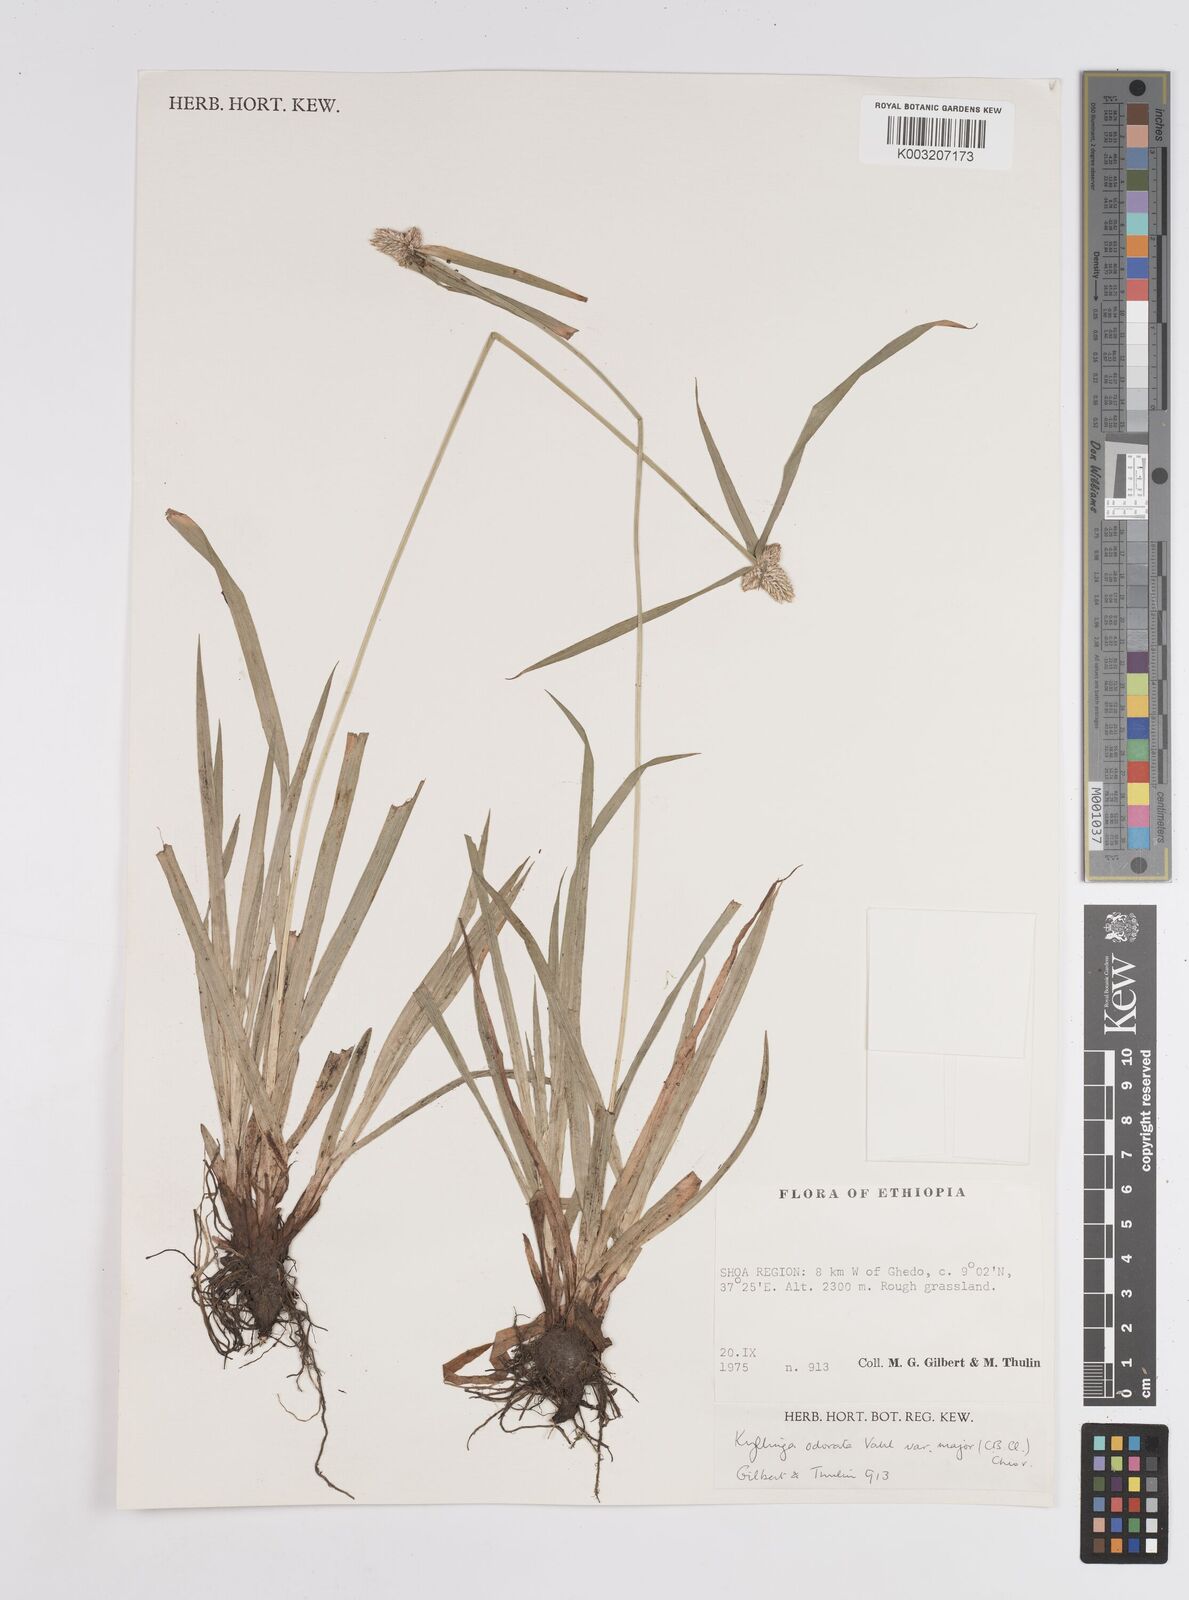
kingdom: Plantae
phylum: Tracheophyta
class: Liliopsida
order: Poales
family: Cyperaceae
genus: Cyperus
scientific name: Cyperus
